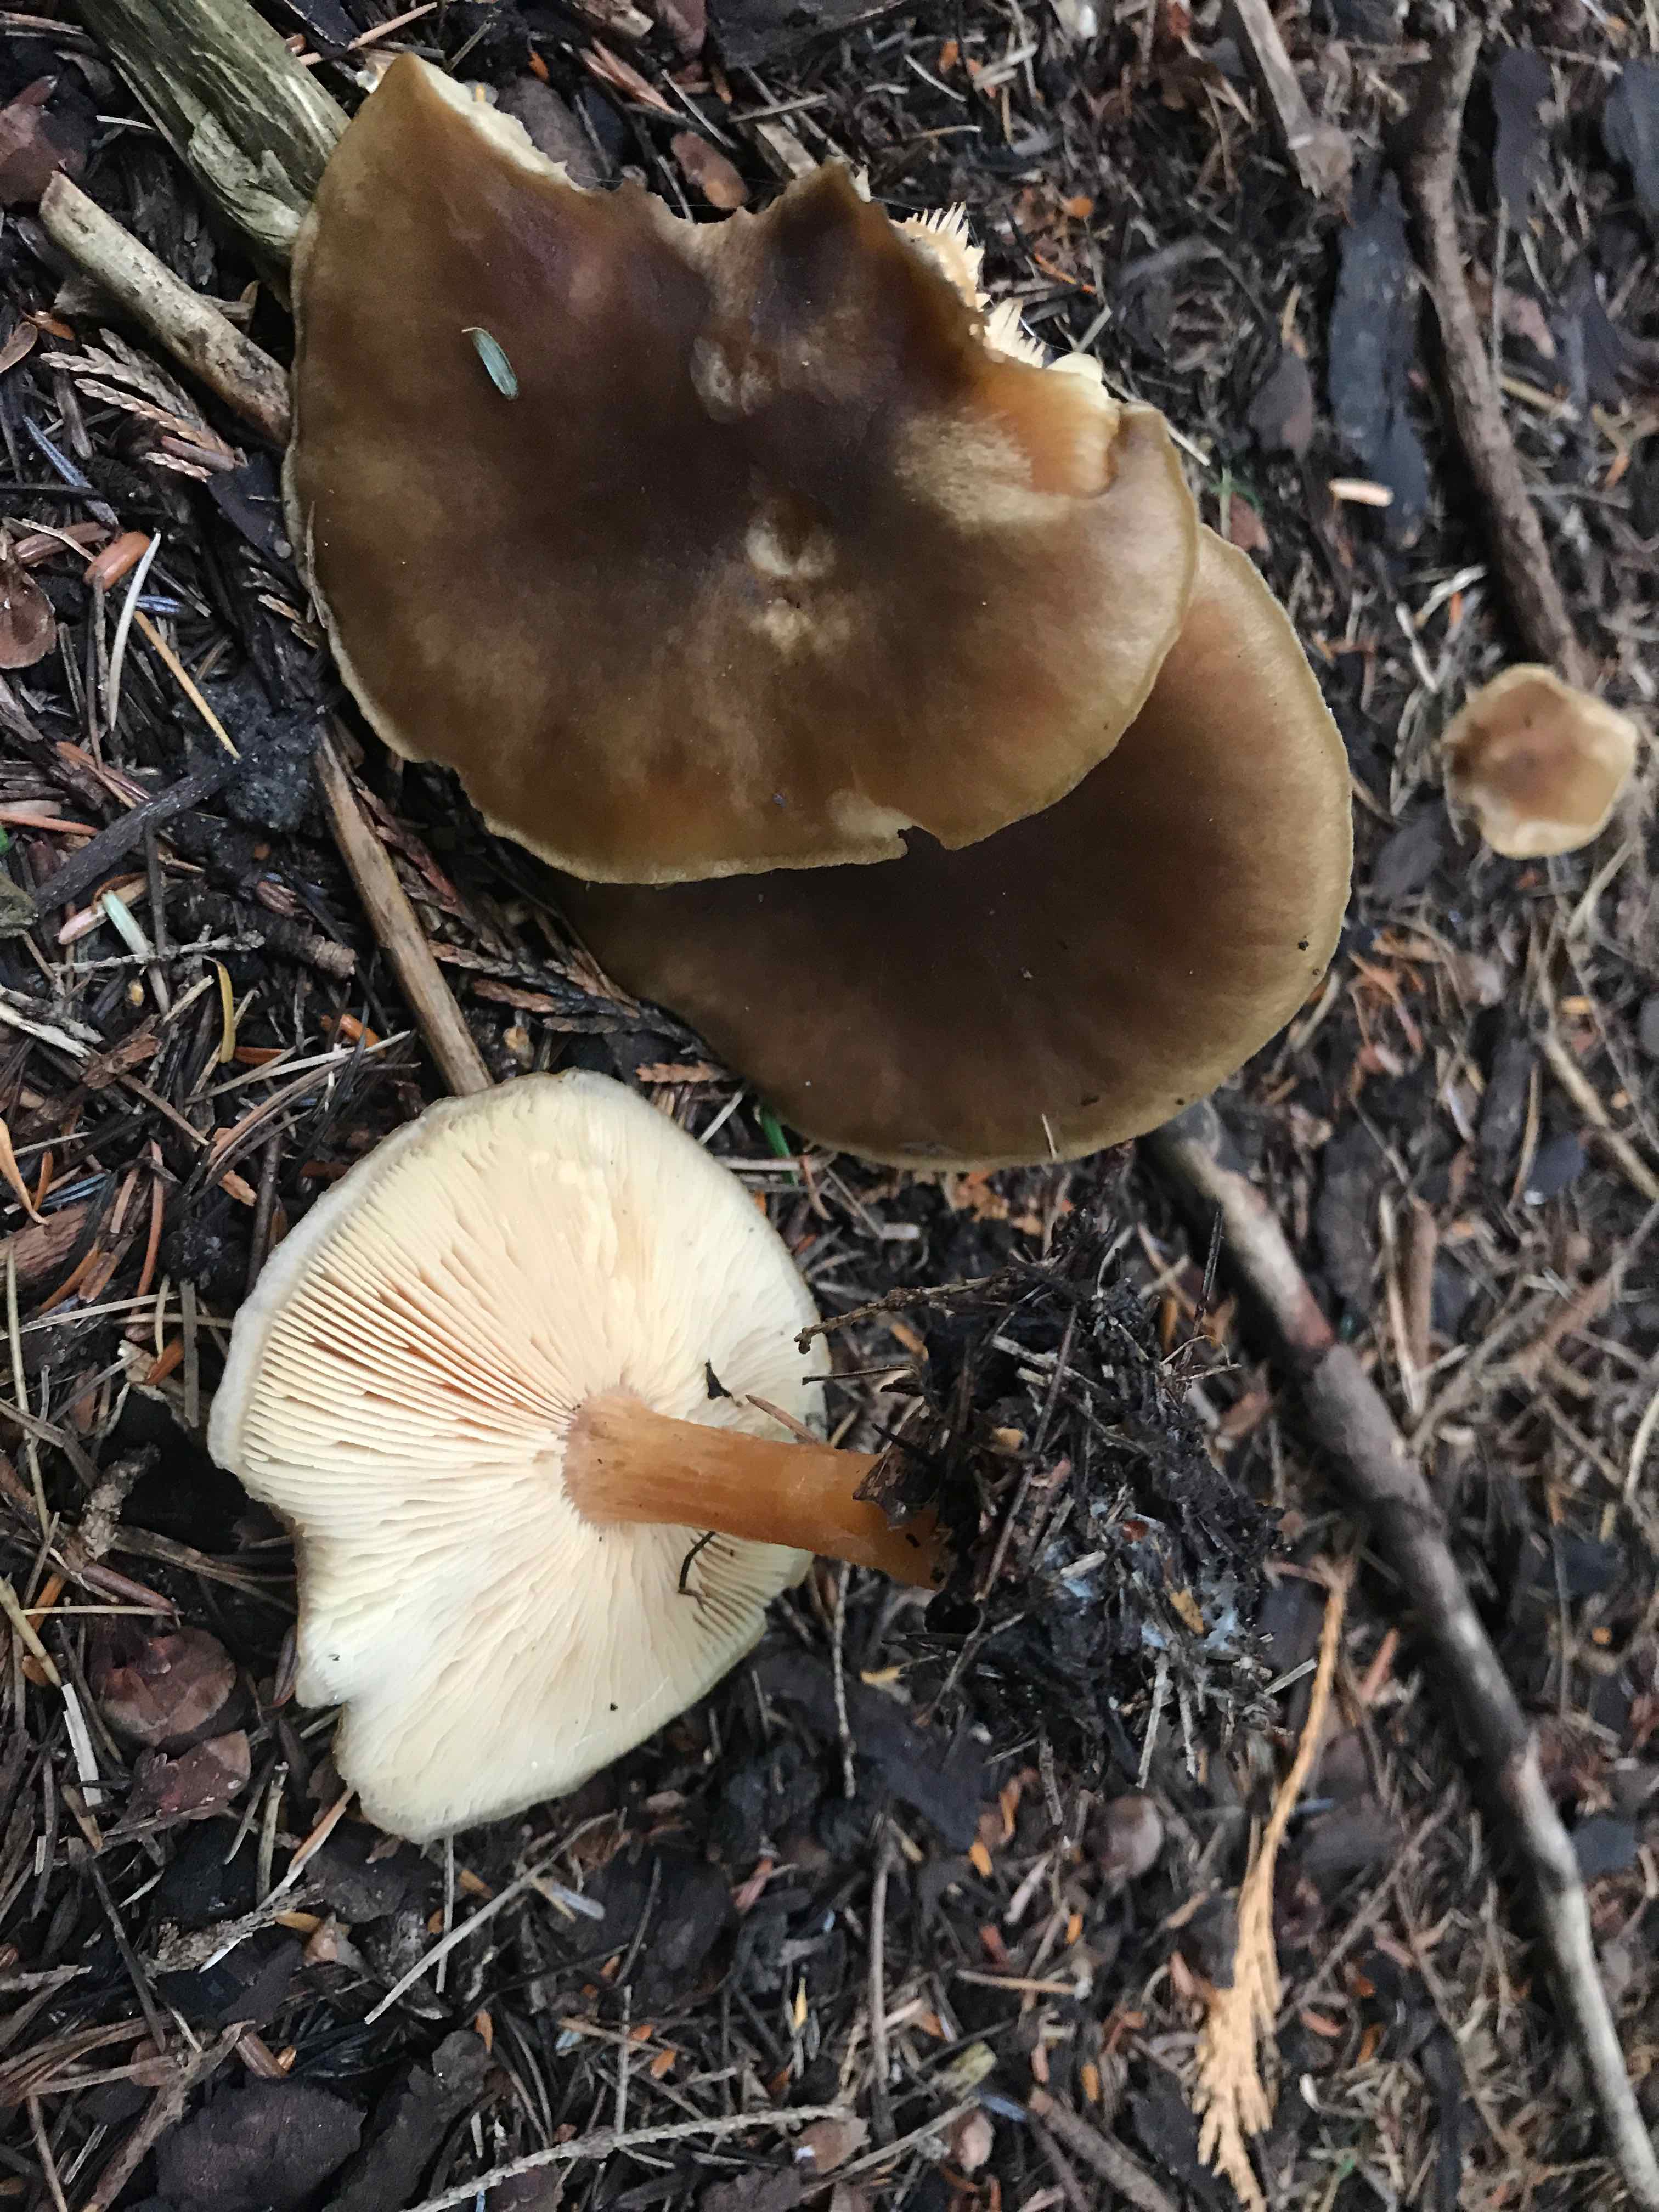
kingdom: Fungi
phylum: Basidiomycota
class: Agaricomycetes
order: Agaricales
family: Tricholomataceae
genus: Melanoleuca
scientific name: Melanoleuca cognata
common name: gyldengrå munkehat
